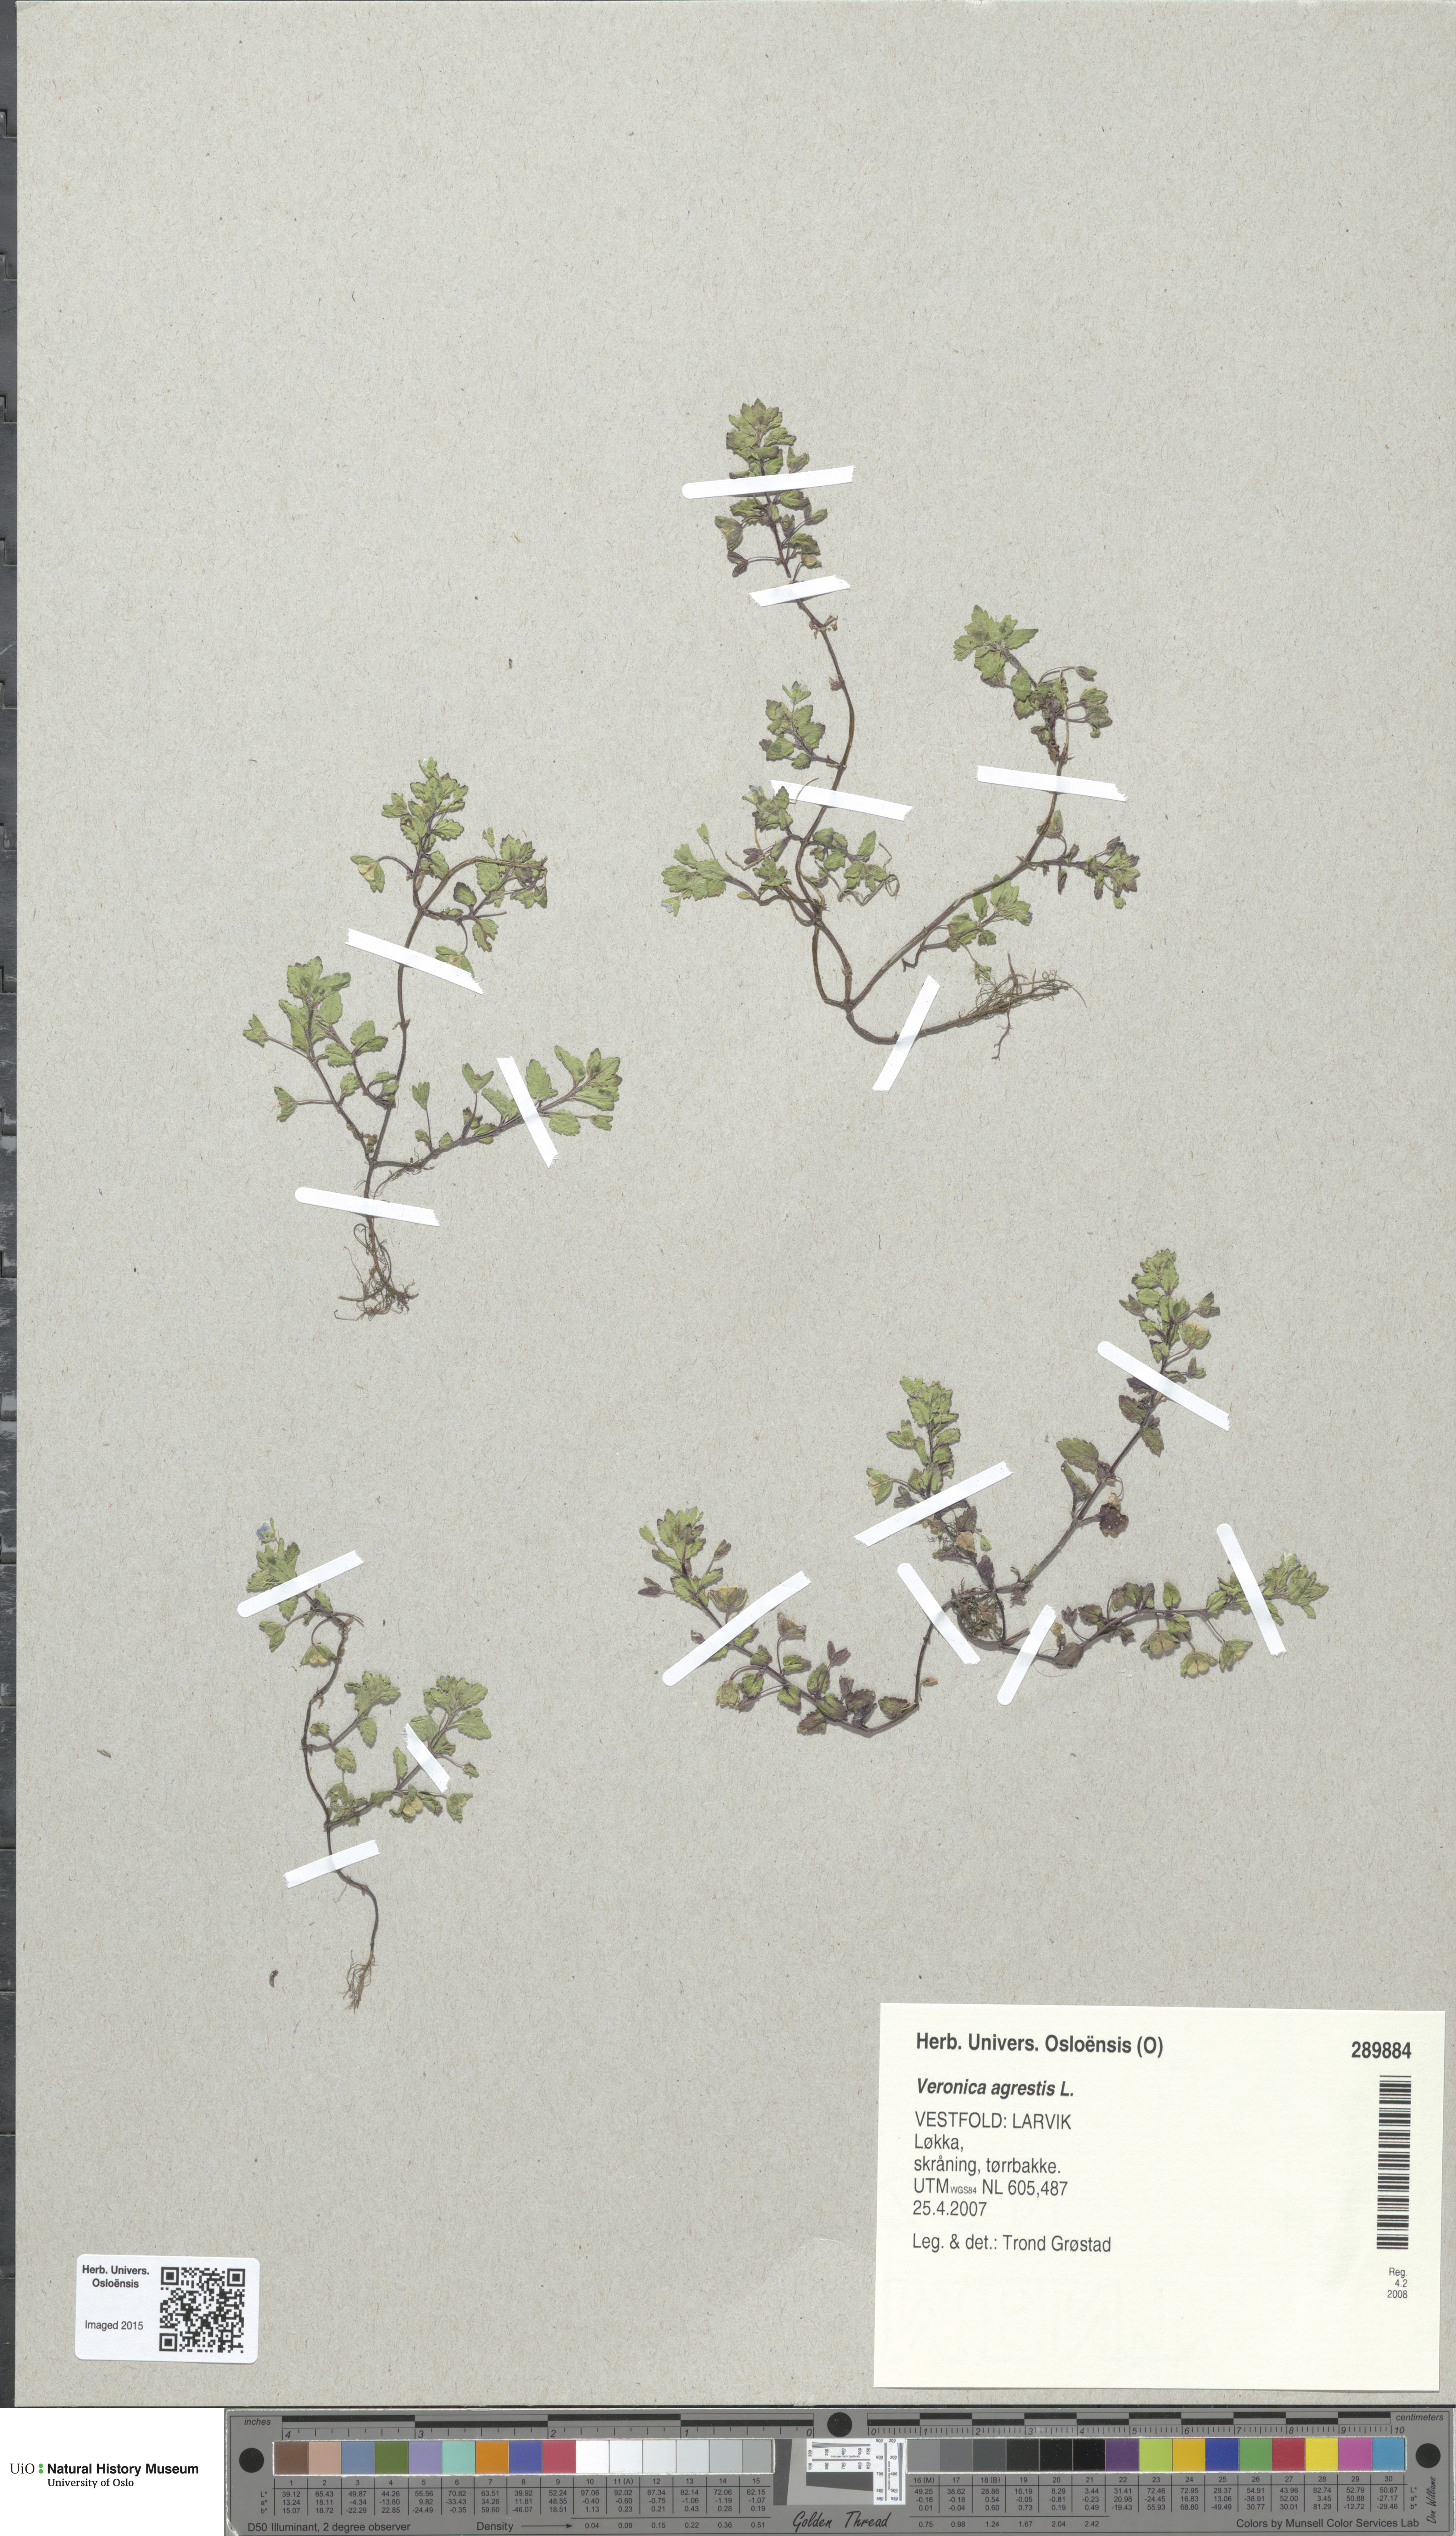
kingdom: Plantae
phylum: Tracheophyta
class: Magnoliopsida
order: Lamiales
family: Plantaginaceae
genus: Veronica
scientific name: Veronica agrestis
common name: Green field-speedwell
